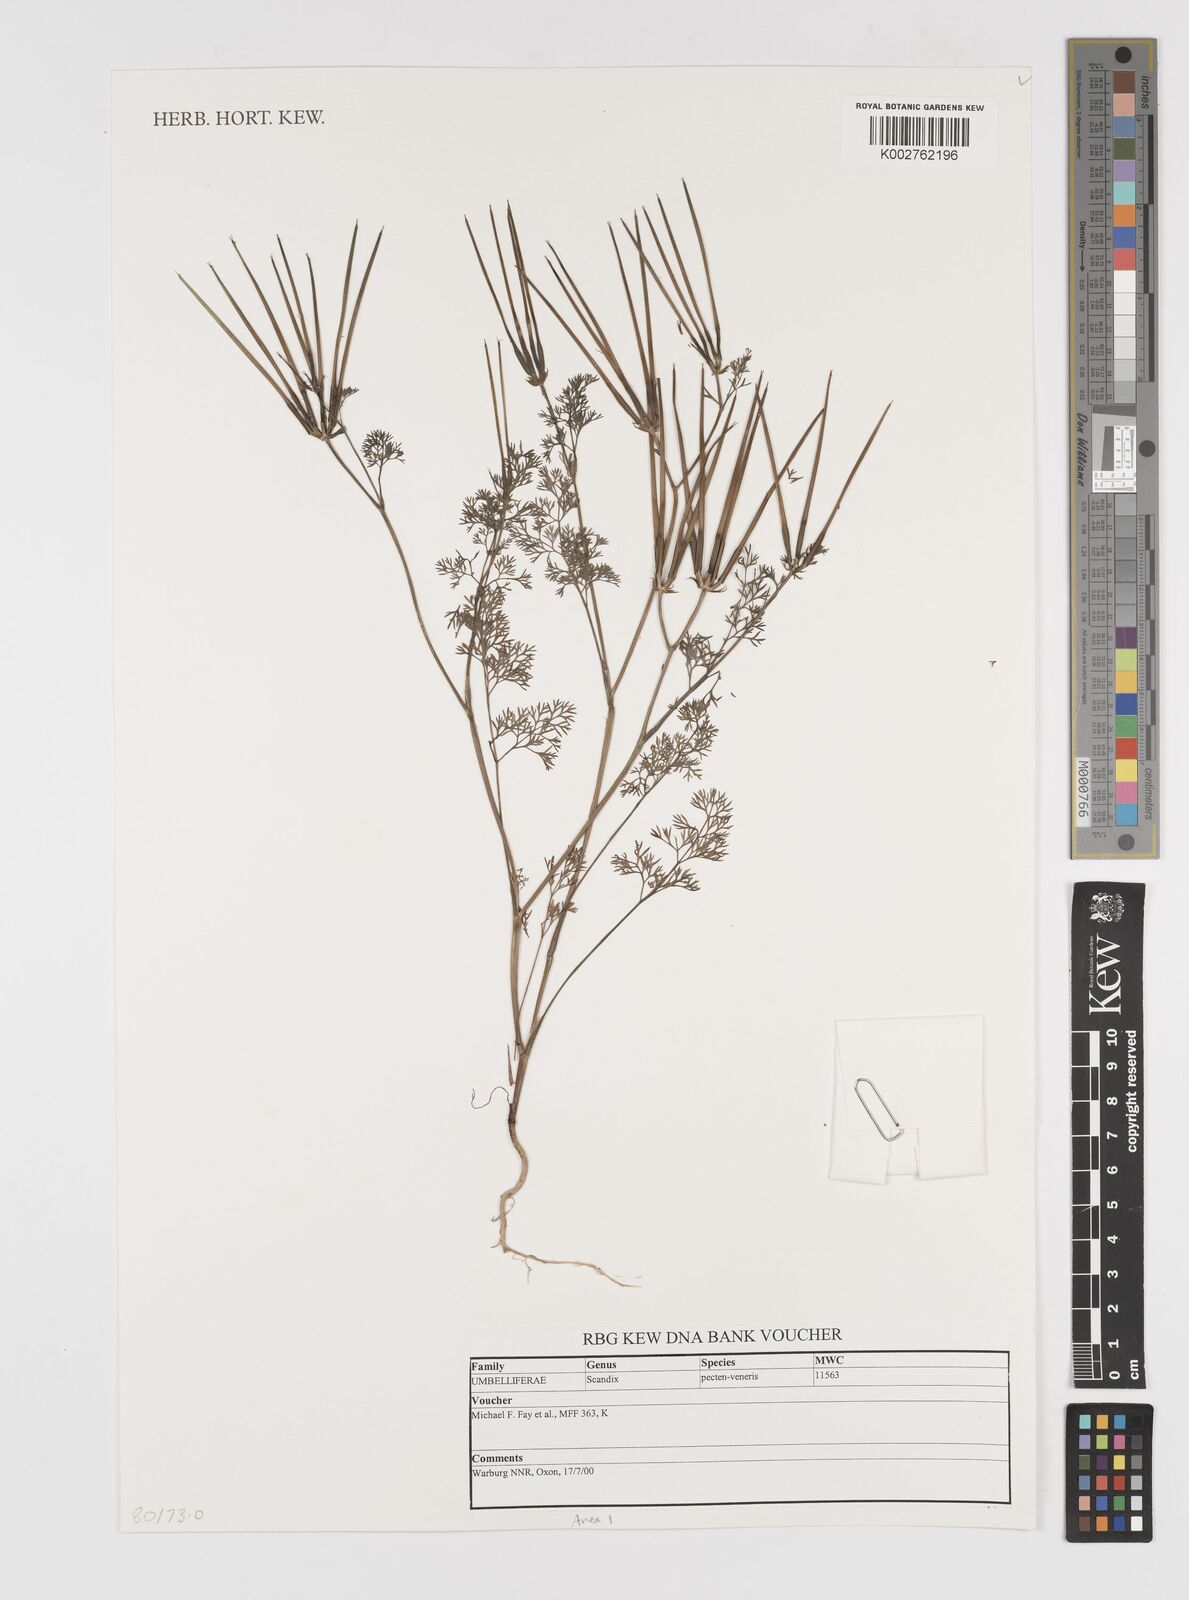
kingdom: Plantae
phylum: Tracheophyta
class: Magnoliopsida
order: Apiales
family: Apiaceae
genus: Scandix
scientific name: Scandix pecten-veneris
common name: Shepherd's-needle
